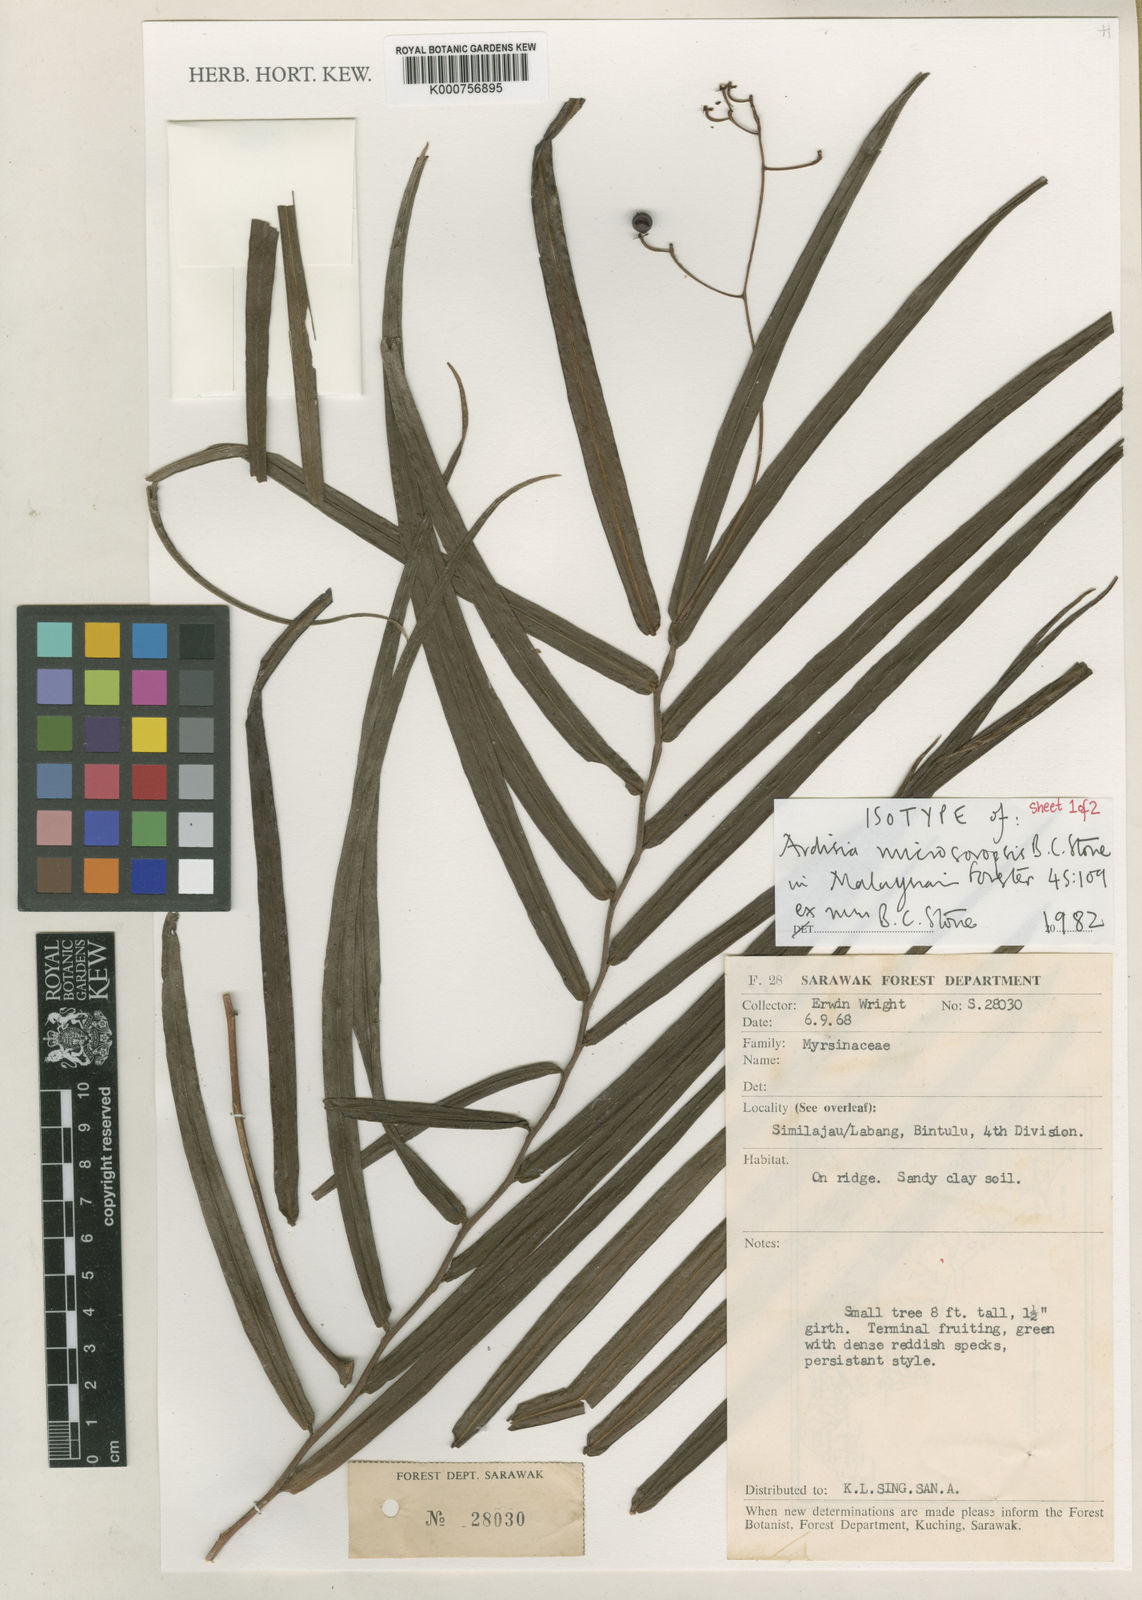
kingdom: Plantae
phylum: Tracheophyta
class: Magnoliopsida
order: Ericales
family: Primulaceae
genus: Ardisia
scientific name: Ardisia microsoropsis
